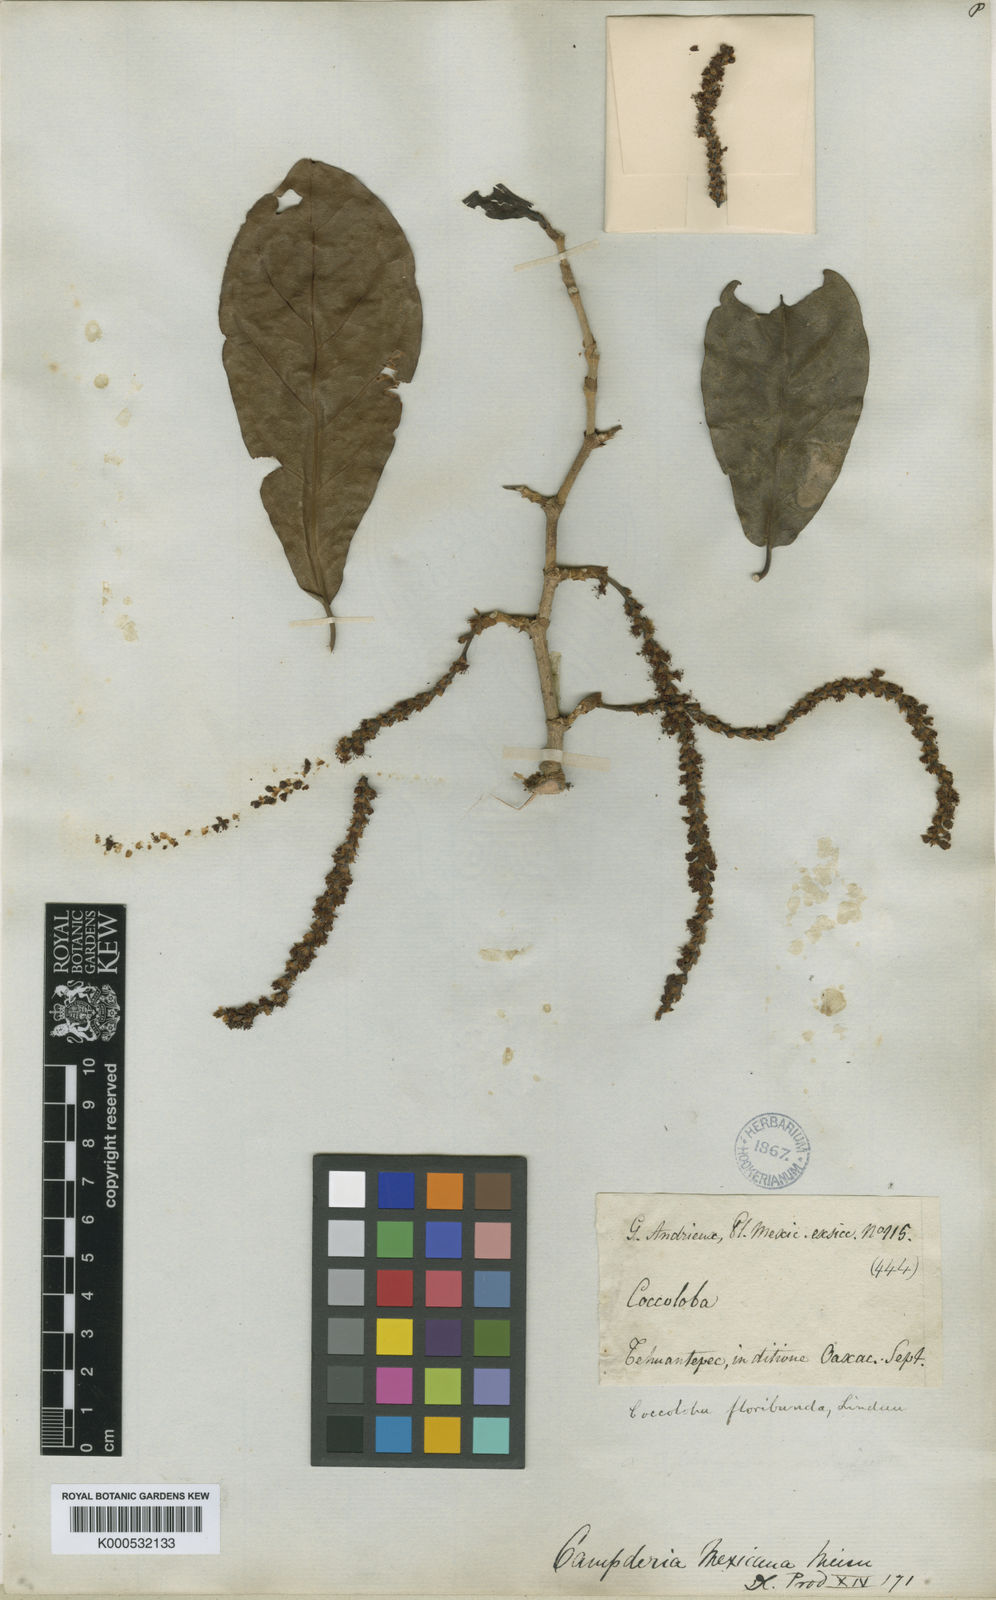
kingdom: Plantae
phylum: Tracheophyta
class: Magnoliopsida
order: Caryophyllales
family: Polygonaceae
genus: Coccoloba
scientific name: Coccoloba floribunda
